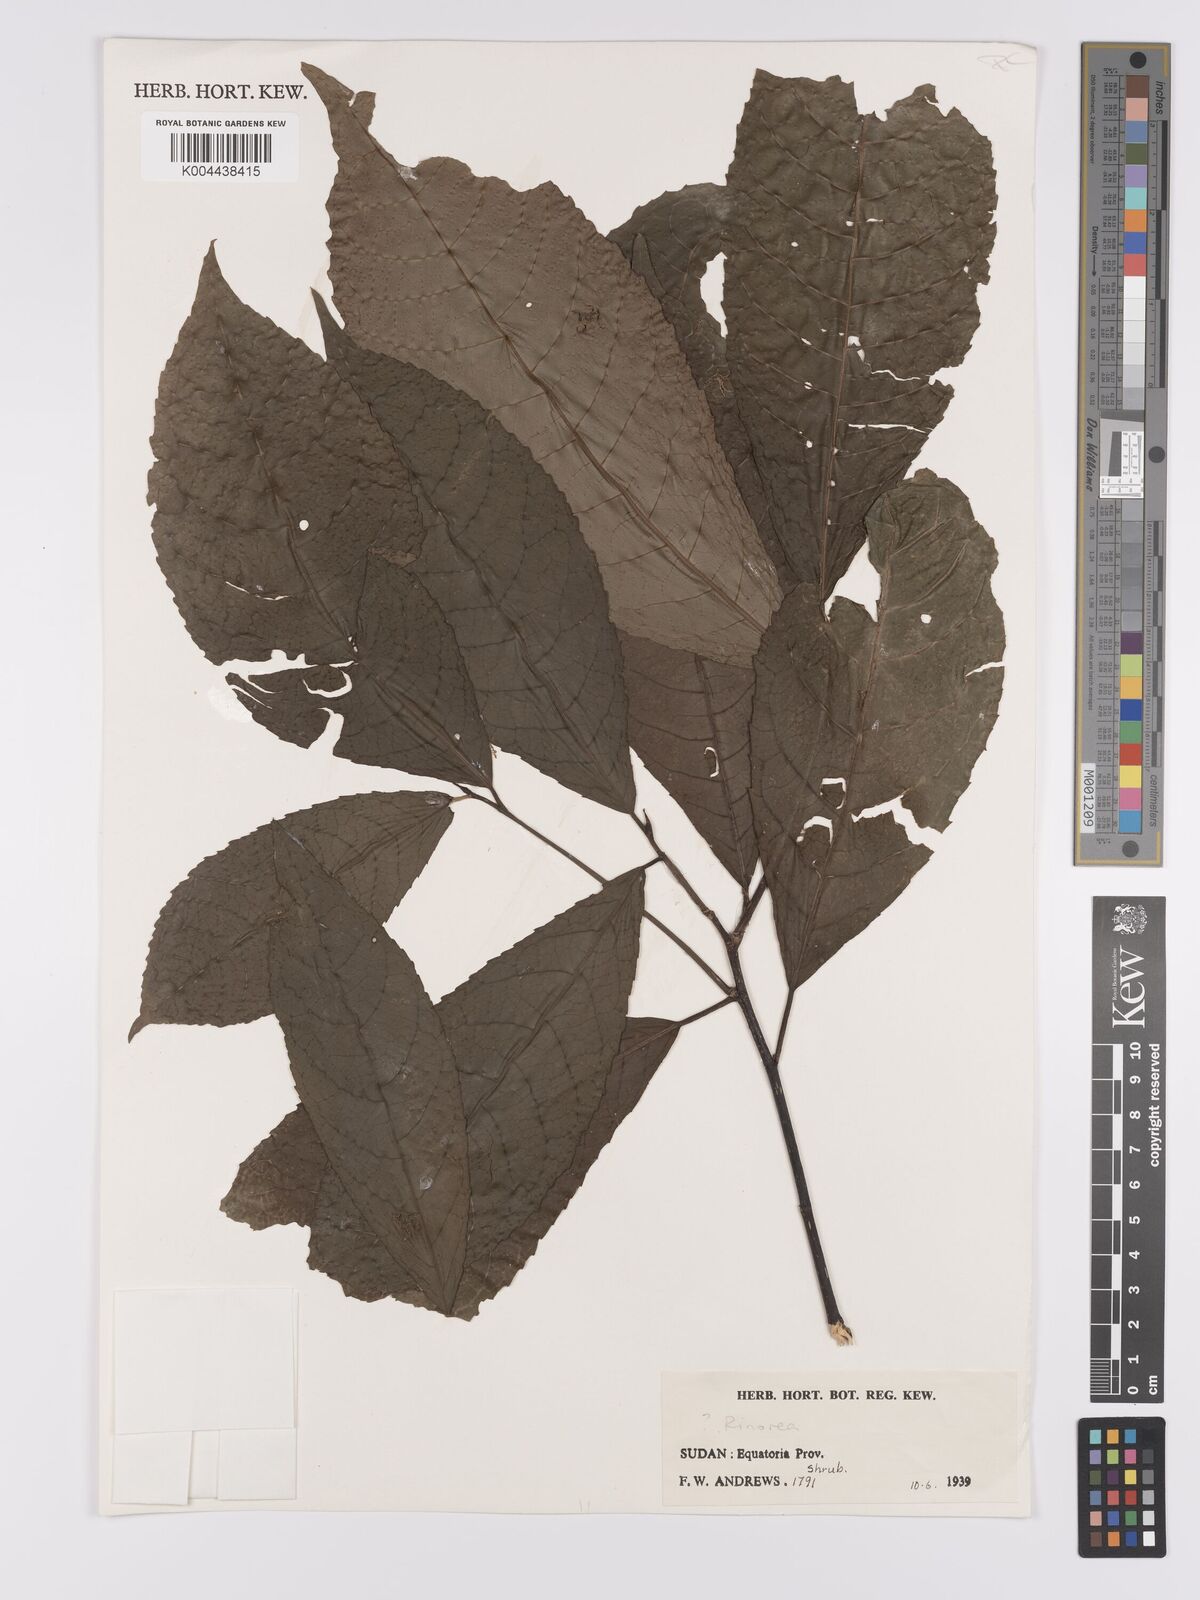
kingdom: Plantae
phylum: Tracheophyta
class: Magnoliopsida
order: Apiales
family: Pittosporaceae
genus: Marianthus
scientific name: Marianthus coeruleopunctatus
